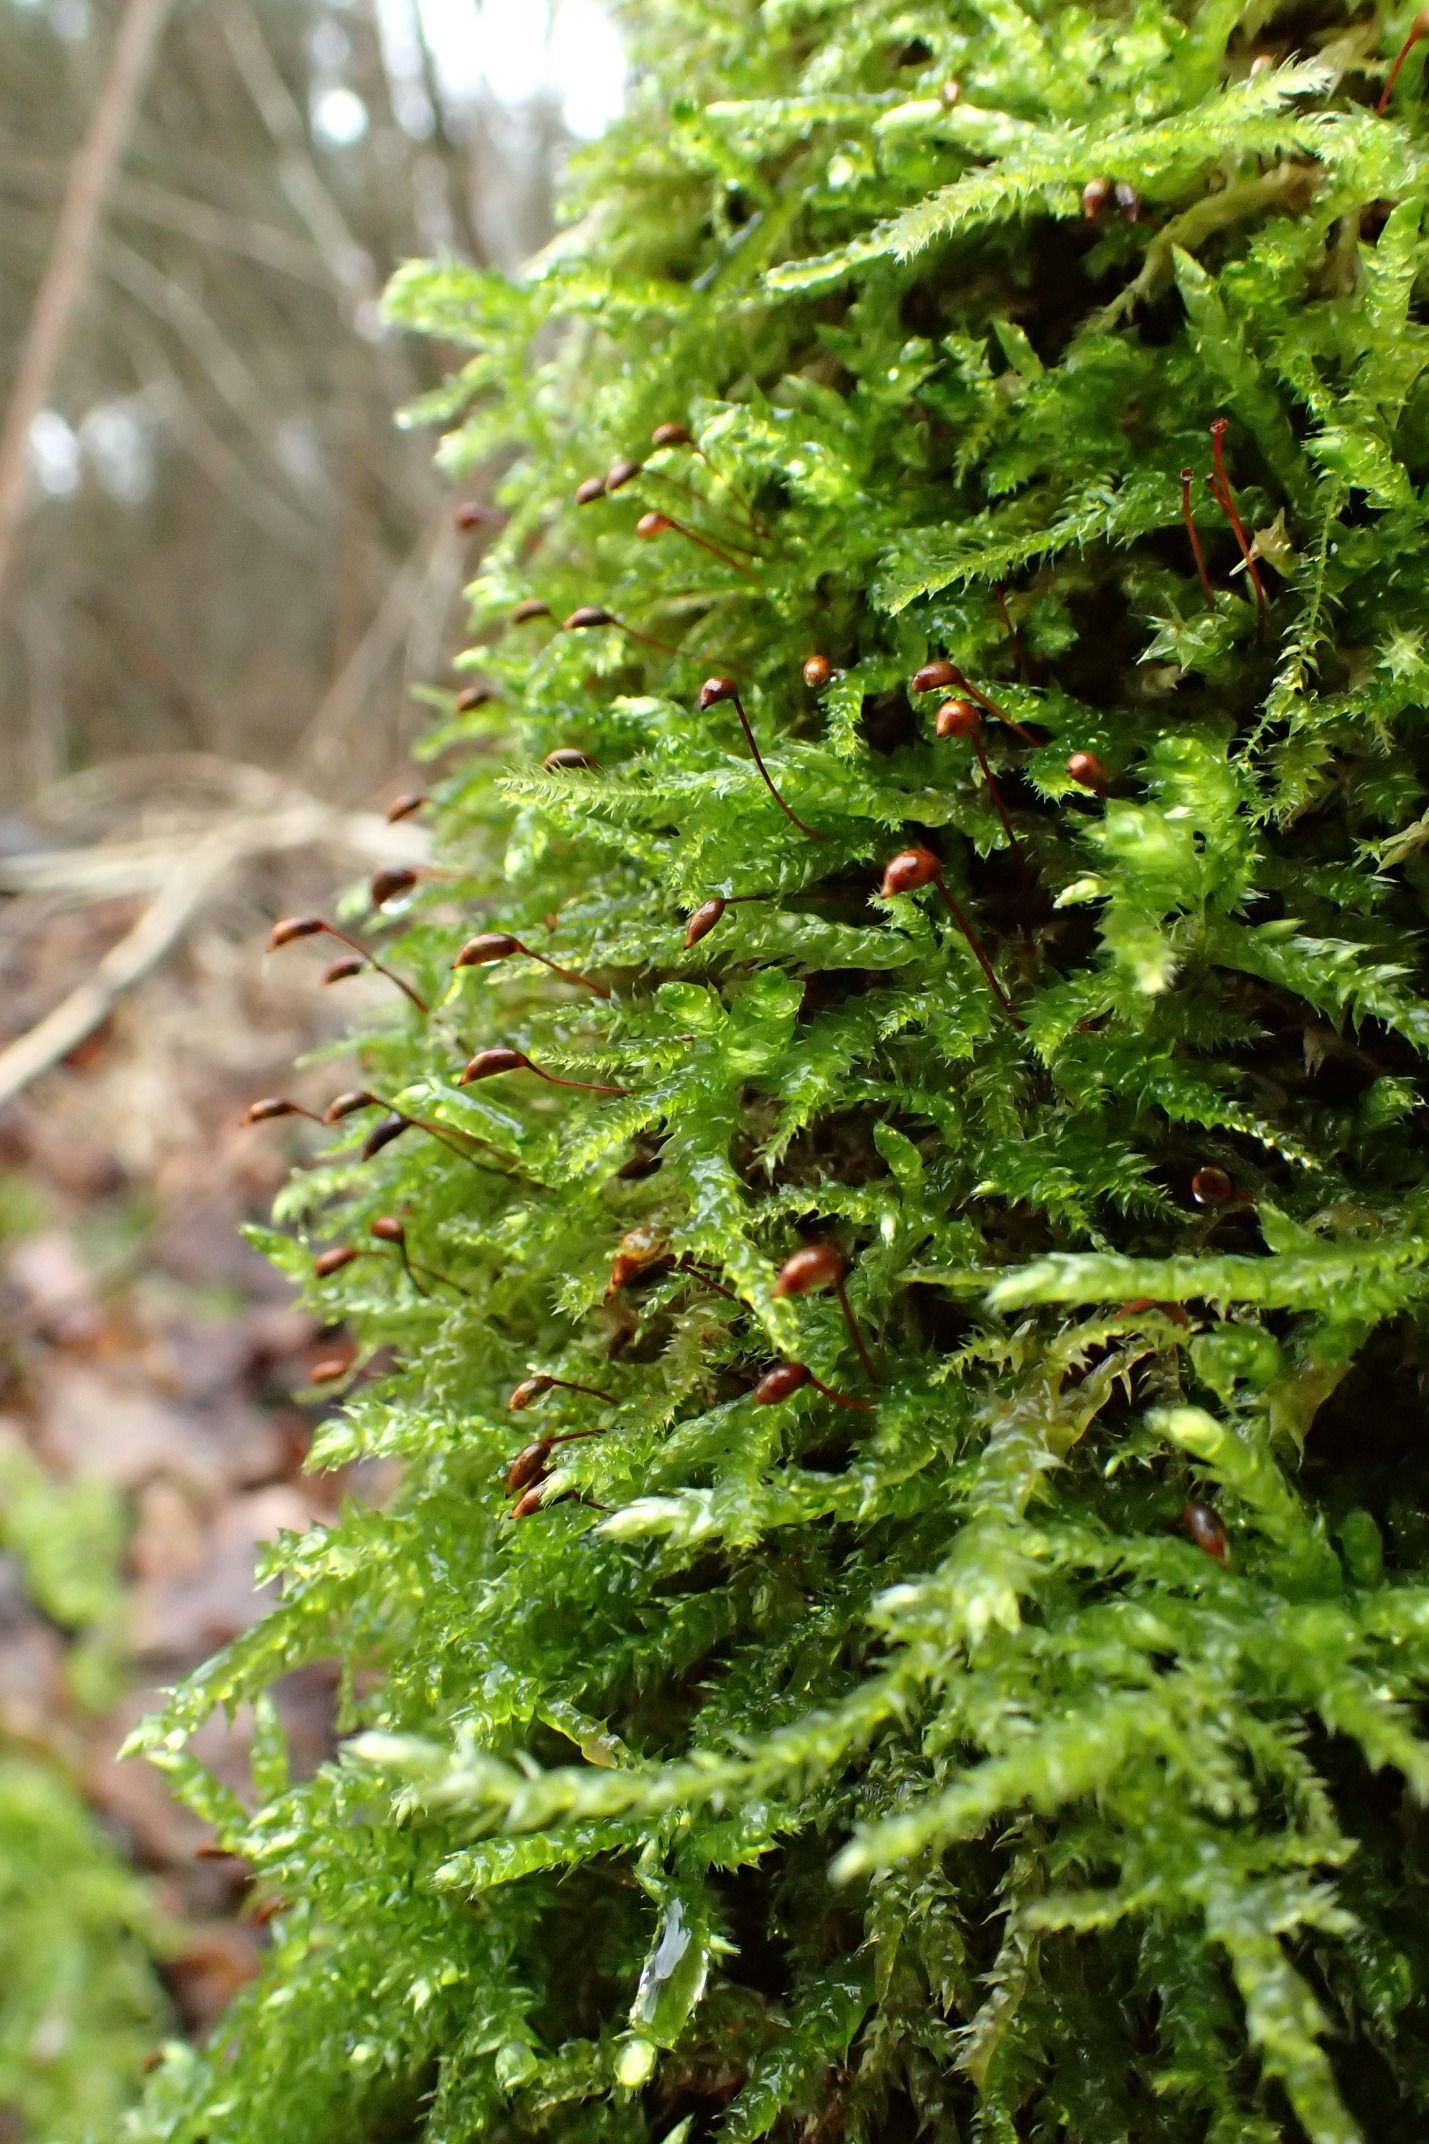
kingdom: Plantae
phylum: Bryophyta
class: Bryopsida
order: Hypnales
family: Brachytheciaceae
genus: Brachythecium
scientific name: Brachythecium rutabulum
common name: Almindelig kortkapsel
